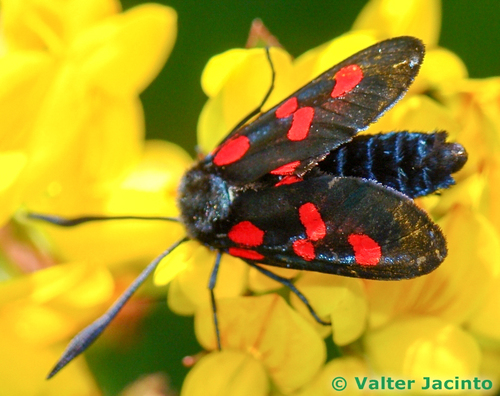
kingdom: Animalia
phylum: Arthropoda
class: Insecta
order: Lepidoptera
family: Zygaenidae
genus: Zygaena
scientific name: Zygaena trifolii
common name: Five-spot burnet
